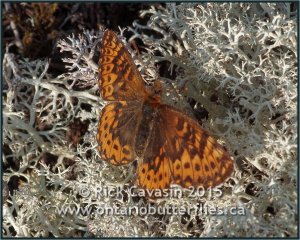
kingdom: Animalia
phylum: Arthropoda
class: Insecta
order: Lepidoptera
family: Nymphalidae
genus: Boloria
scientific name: Boloria freija
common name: Freija Fritillary
